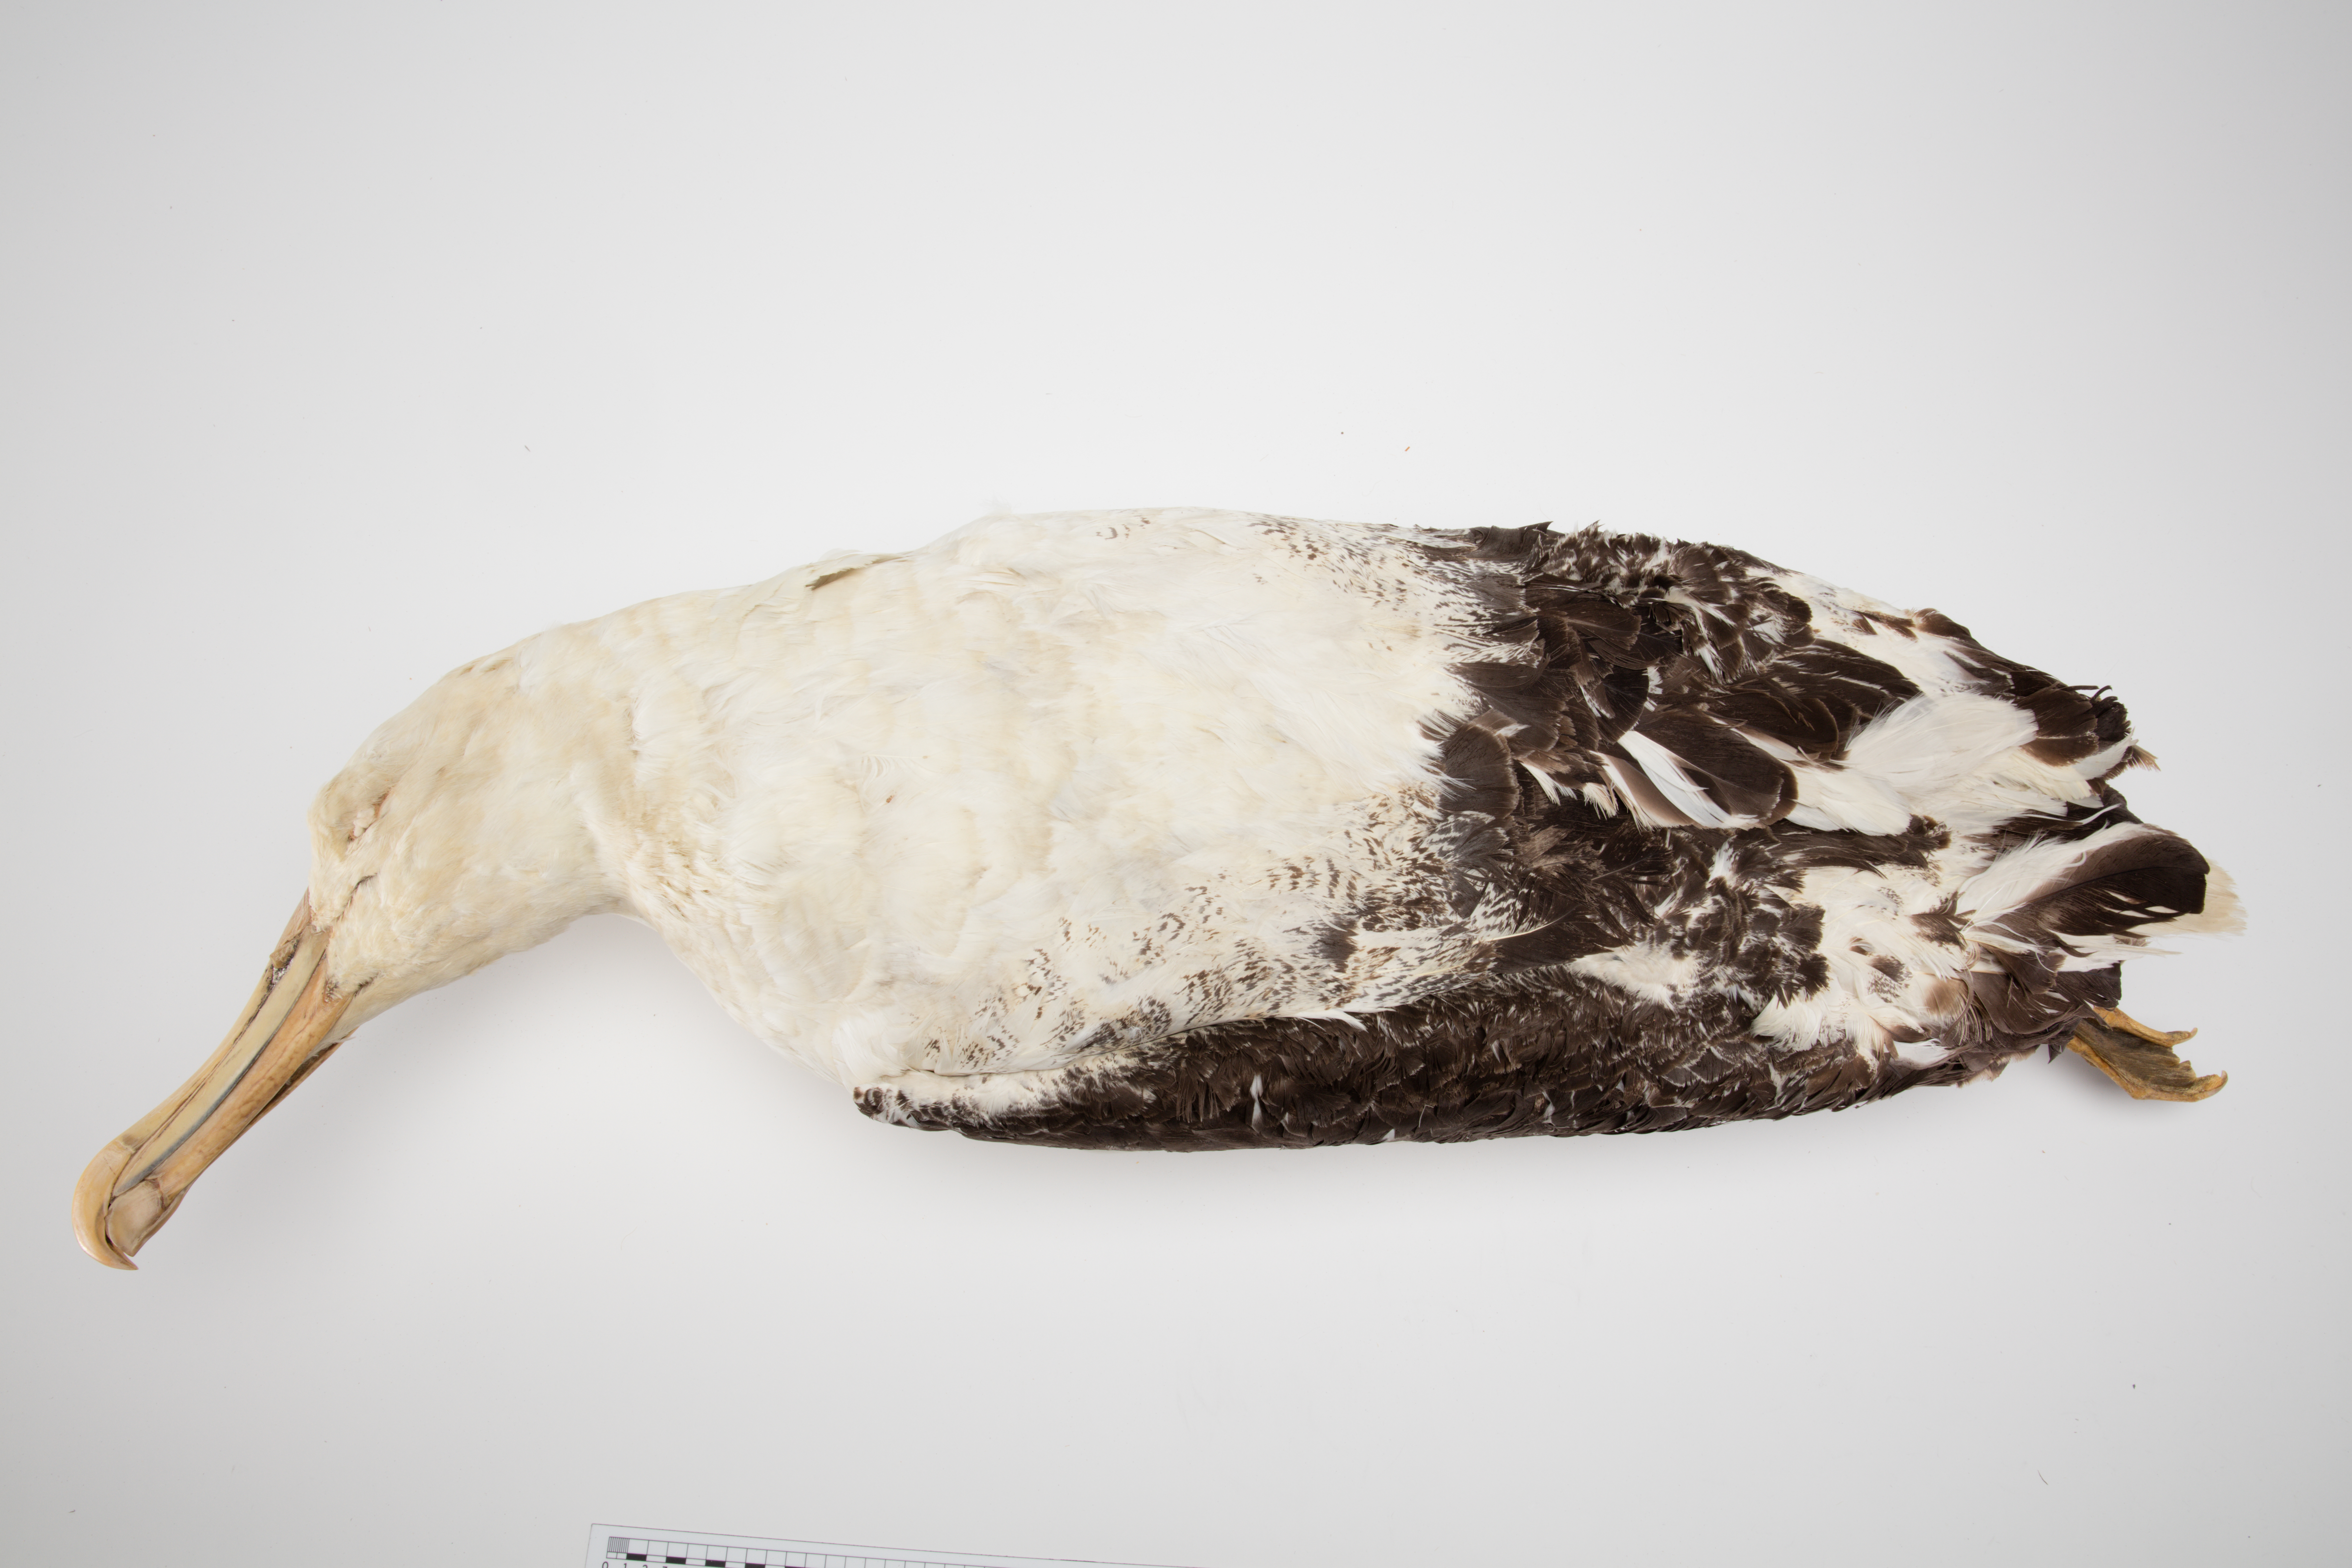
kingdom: Animalia
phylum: Chordata
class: Aves
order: Procellariiformes
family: Diomedeidae
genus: Diomedea
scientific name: Diomedea
